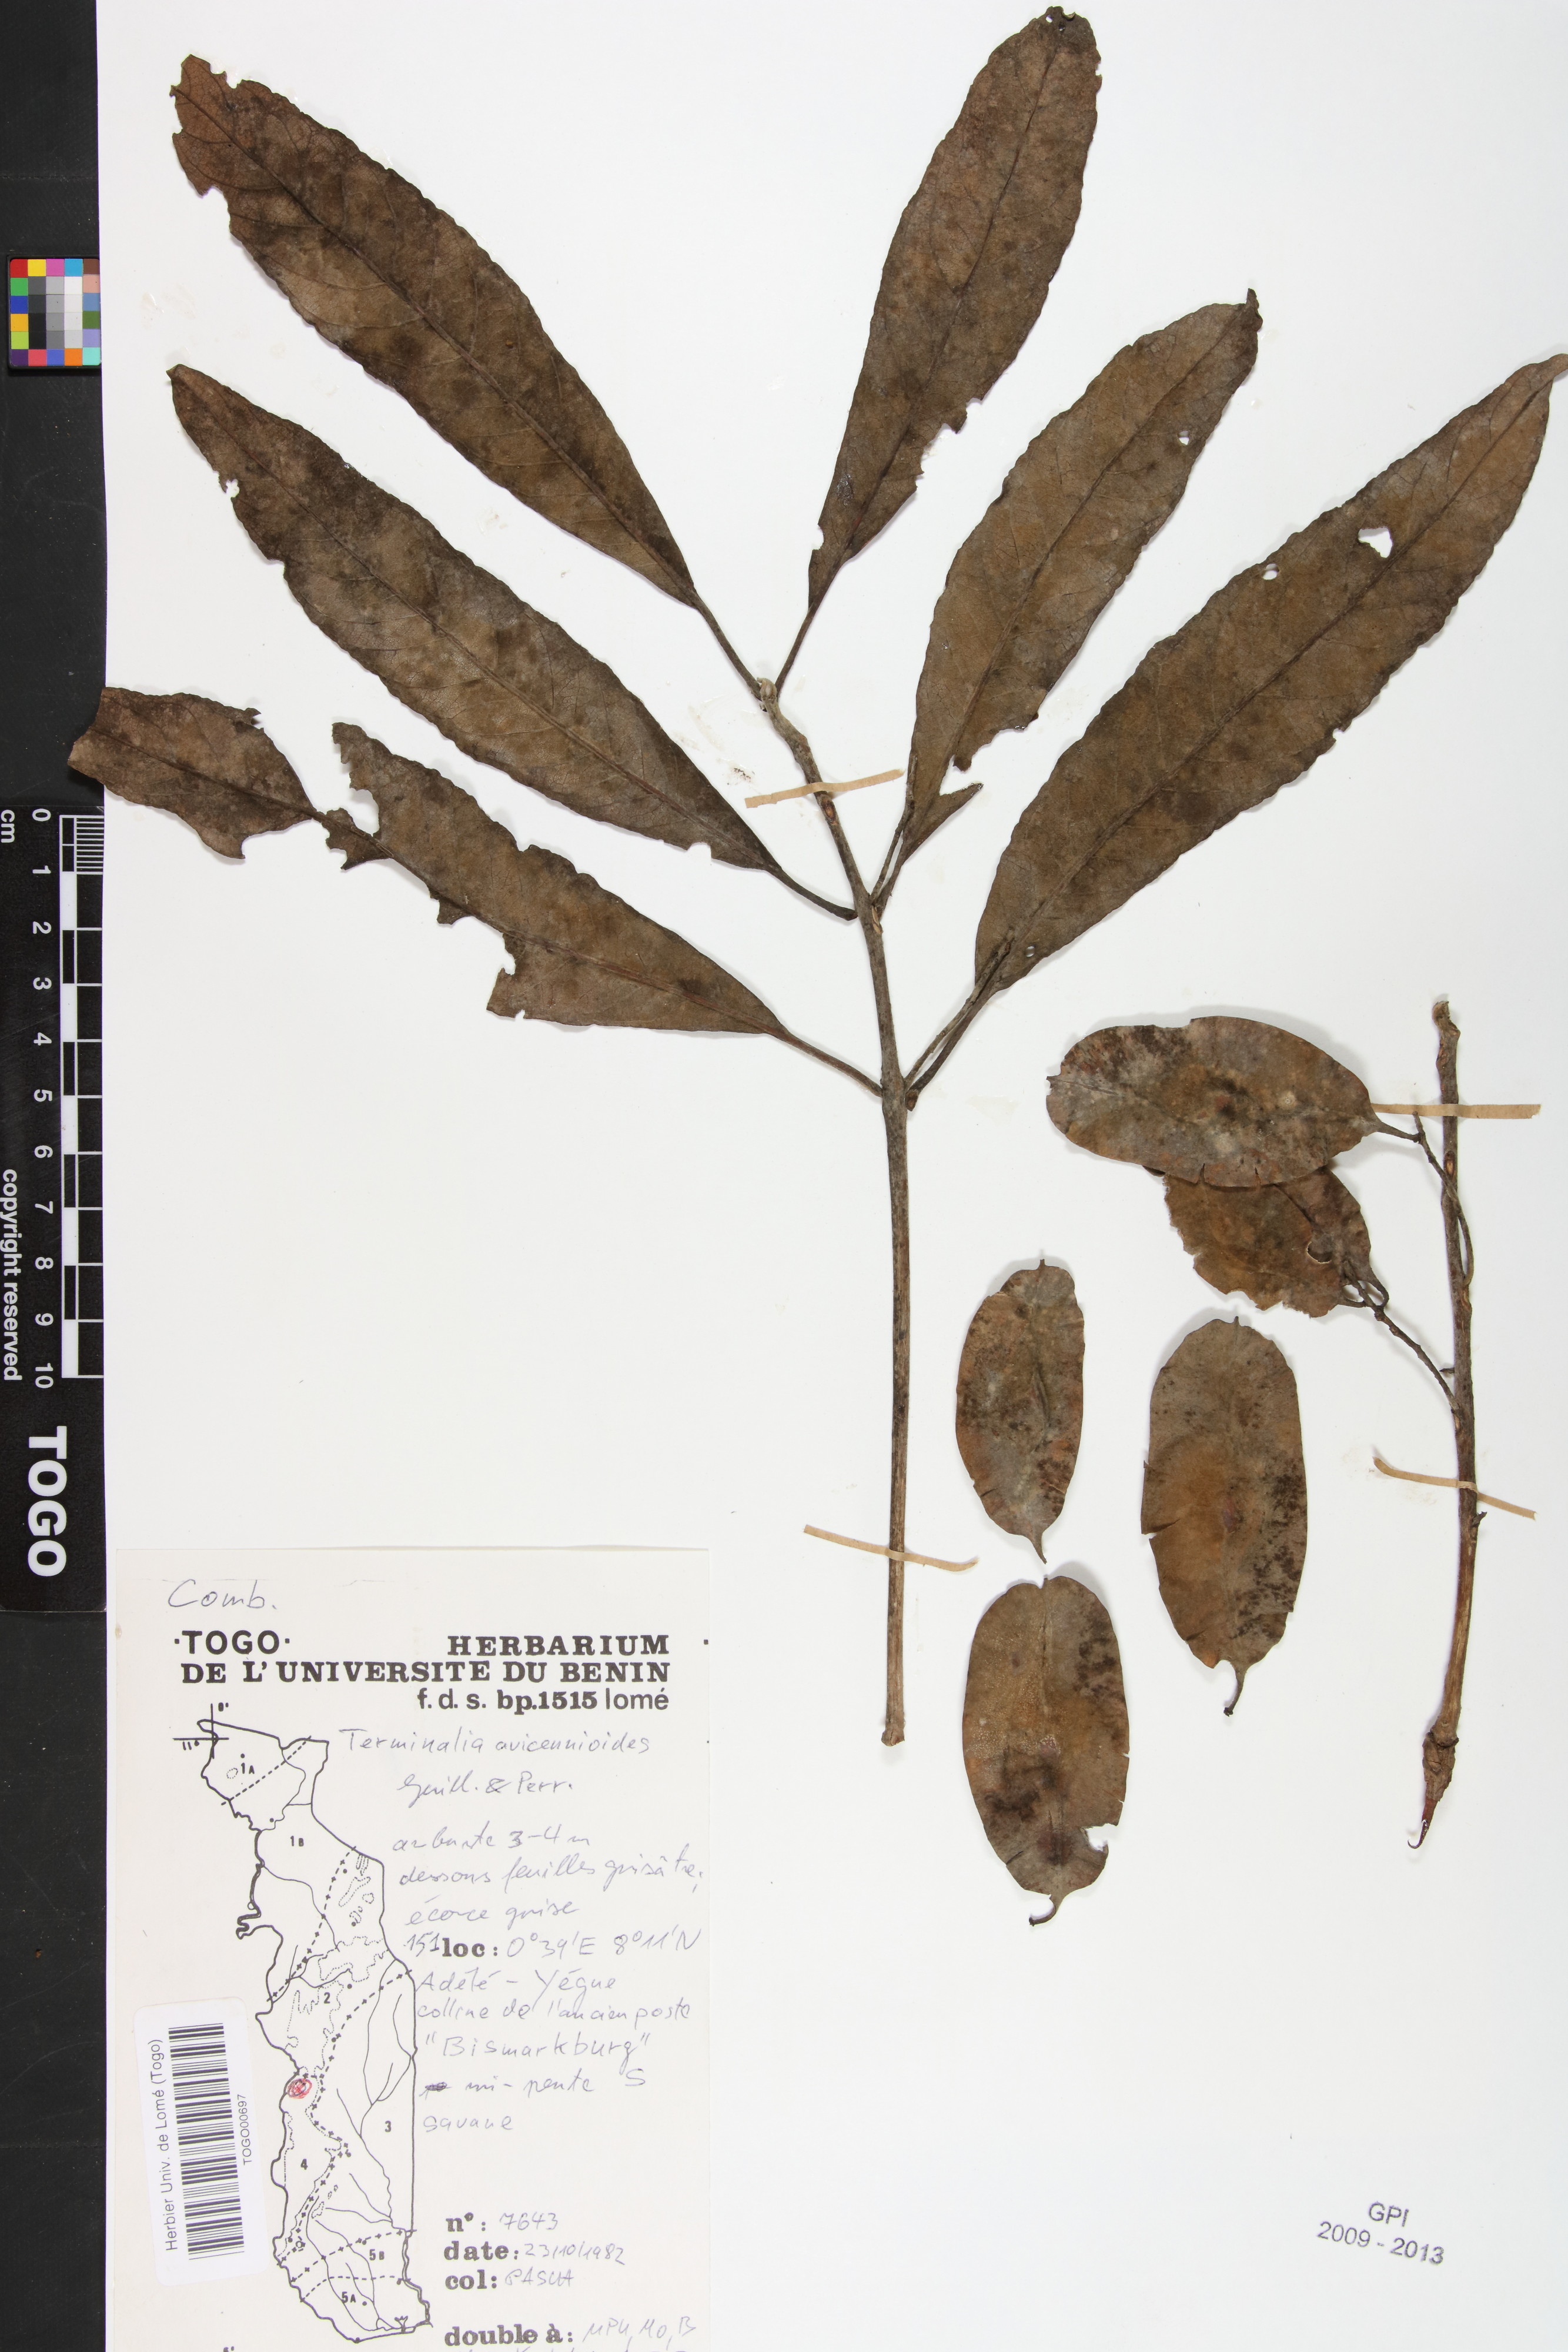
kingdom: Plantae
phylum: Tracheophyta
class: Magnoliopsida
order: Myrtales
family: Combretaceae
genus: Terminalia
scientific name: Terminalia avicennioides
